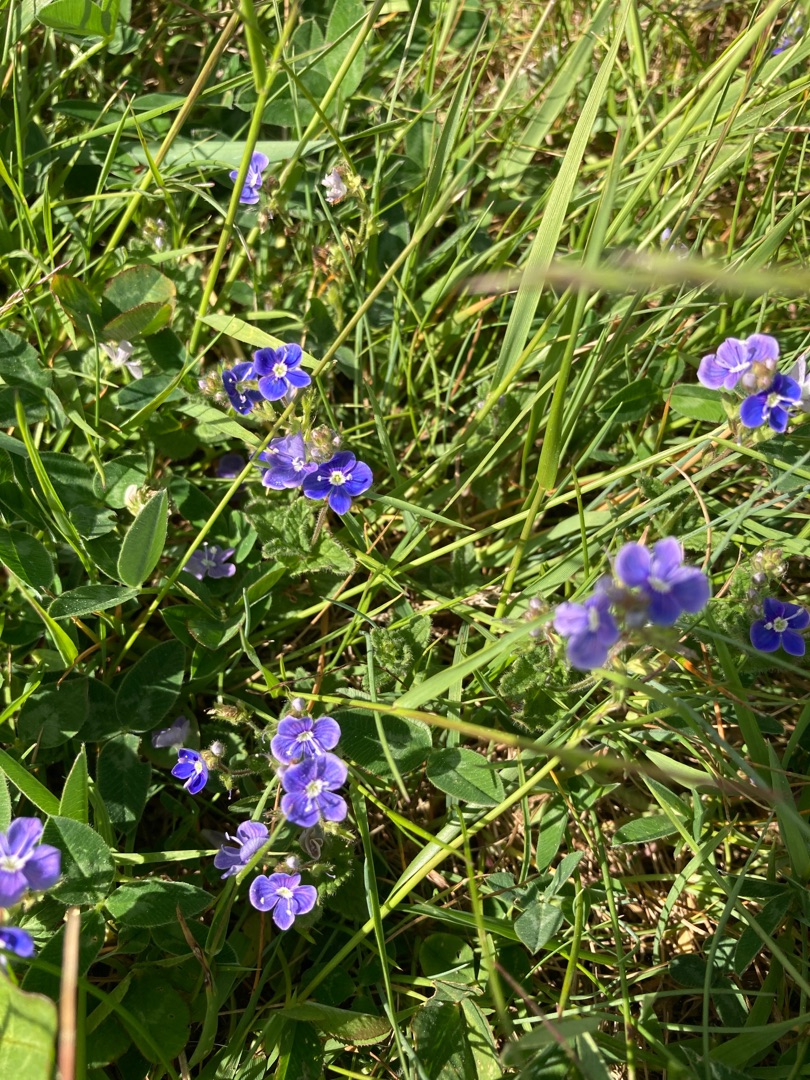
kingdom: Plantae
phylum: Tracheophyta
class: Magnoliopsida
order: Lamiales
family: Plantaginaceae
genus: Veronica
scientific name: Veronica chamaedrys
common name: Tveskægget ærenpris
